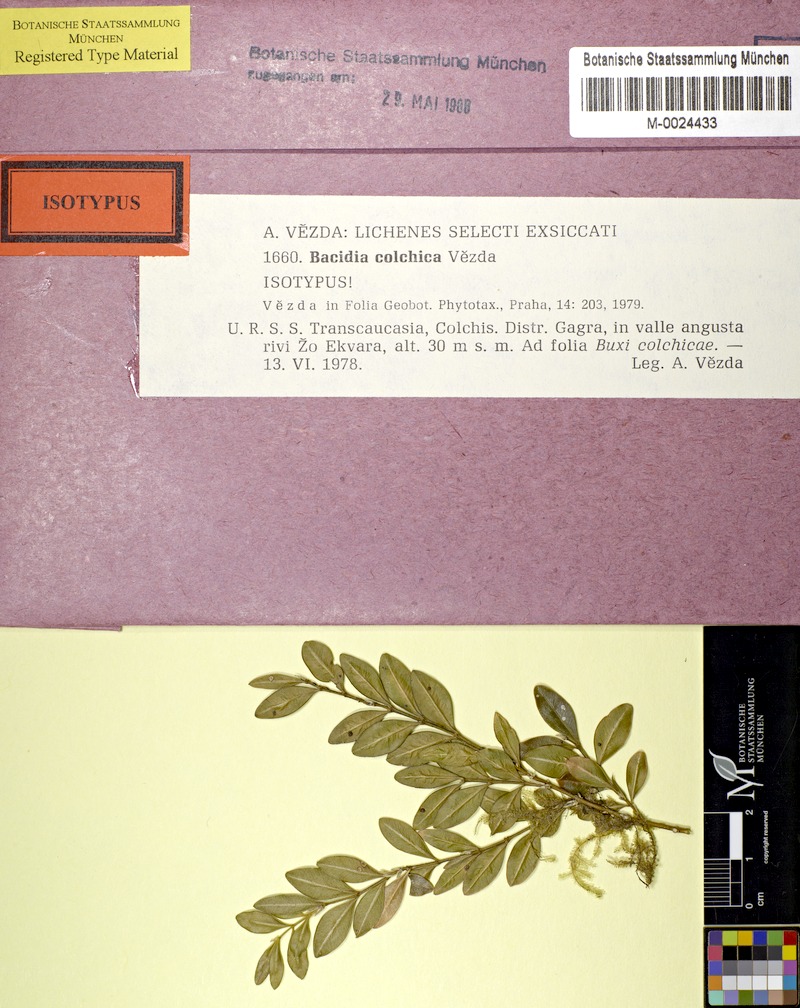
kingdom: Fungi
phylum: Ascomycota
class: Lecanoromycetes
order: Lecanorales
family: Byssolomataceae
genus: Fellhanera
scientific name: Fellhanera colchica
